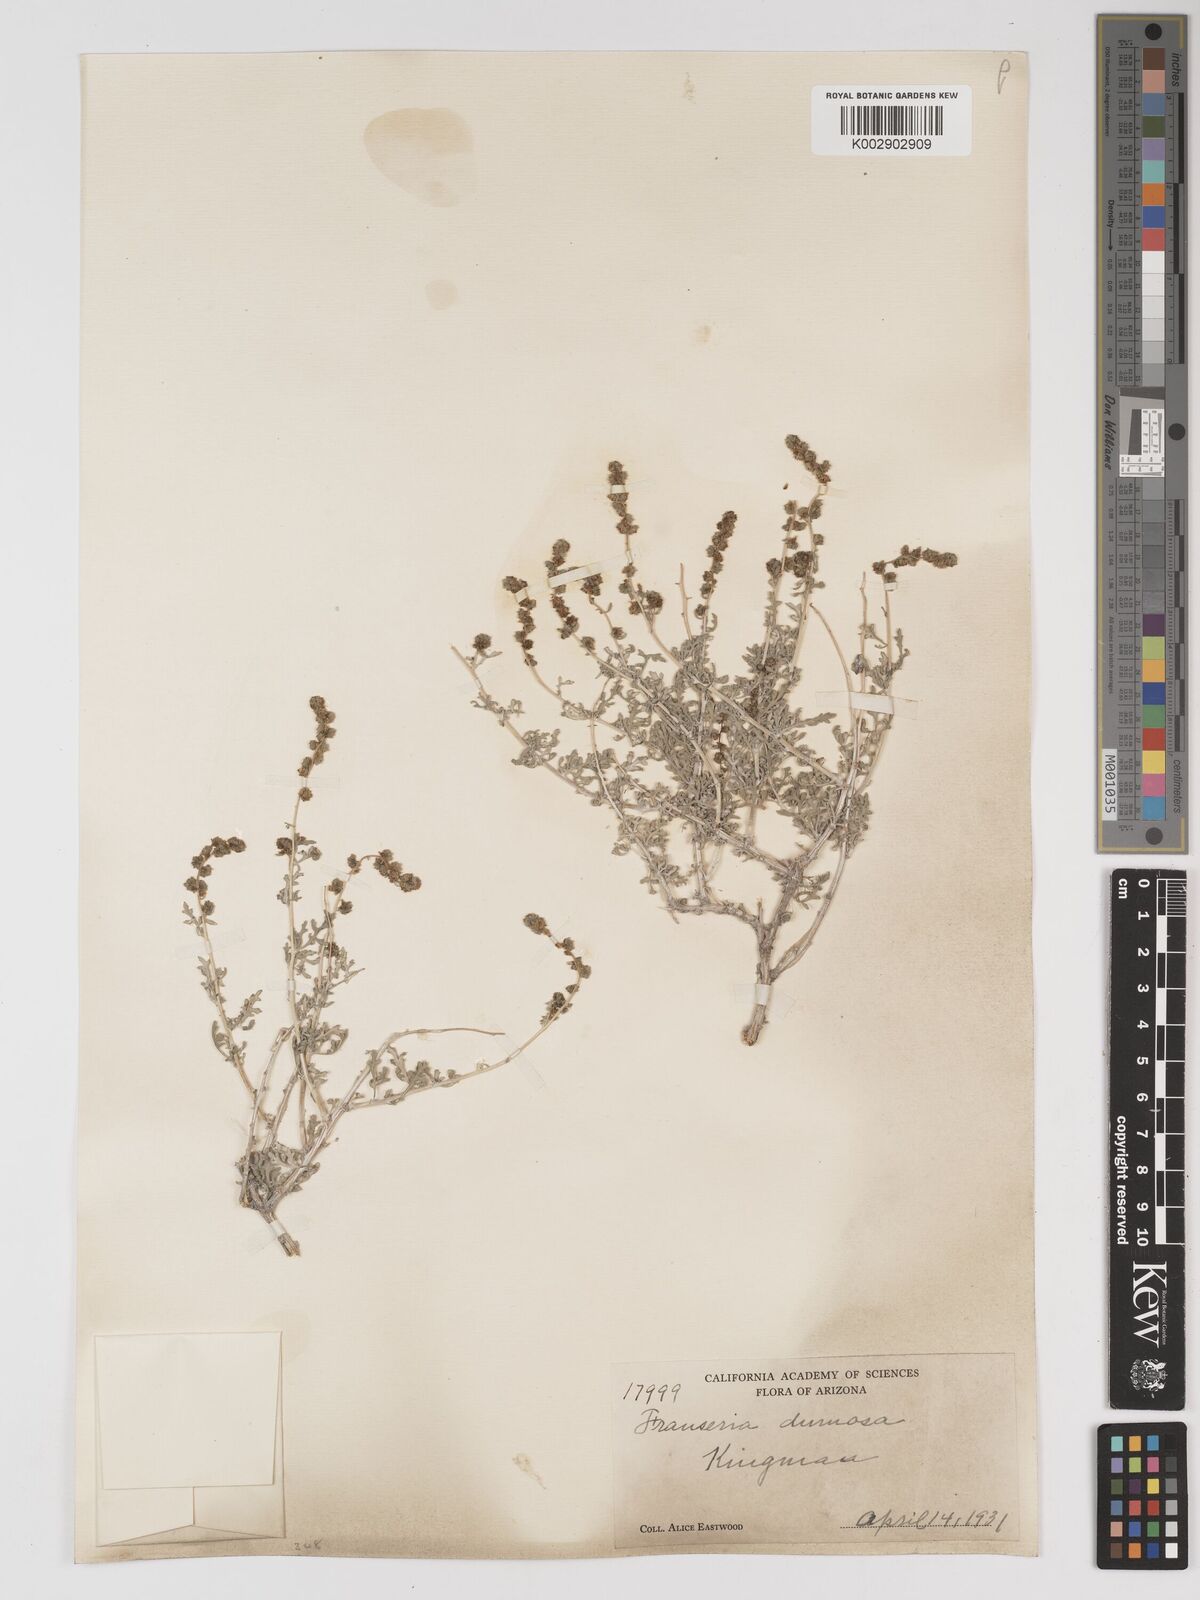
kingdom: Plantae
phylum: Tracheophyta
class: Magnoliopsida
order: Asterales
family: Asteraceae
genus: Ambrosia
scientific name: Ambrosia dumosa
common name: Bur-sage
